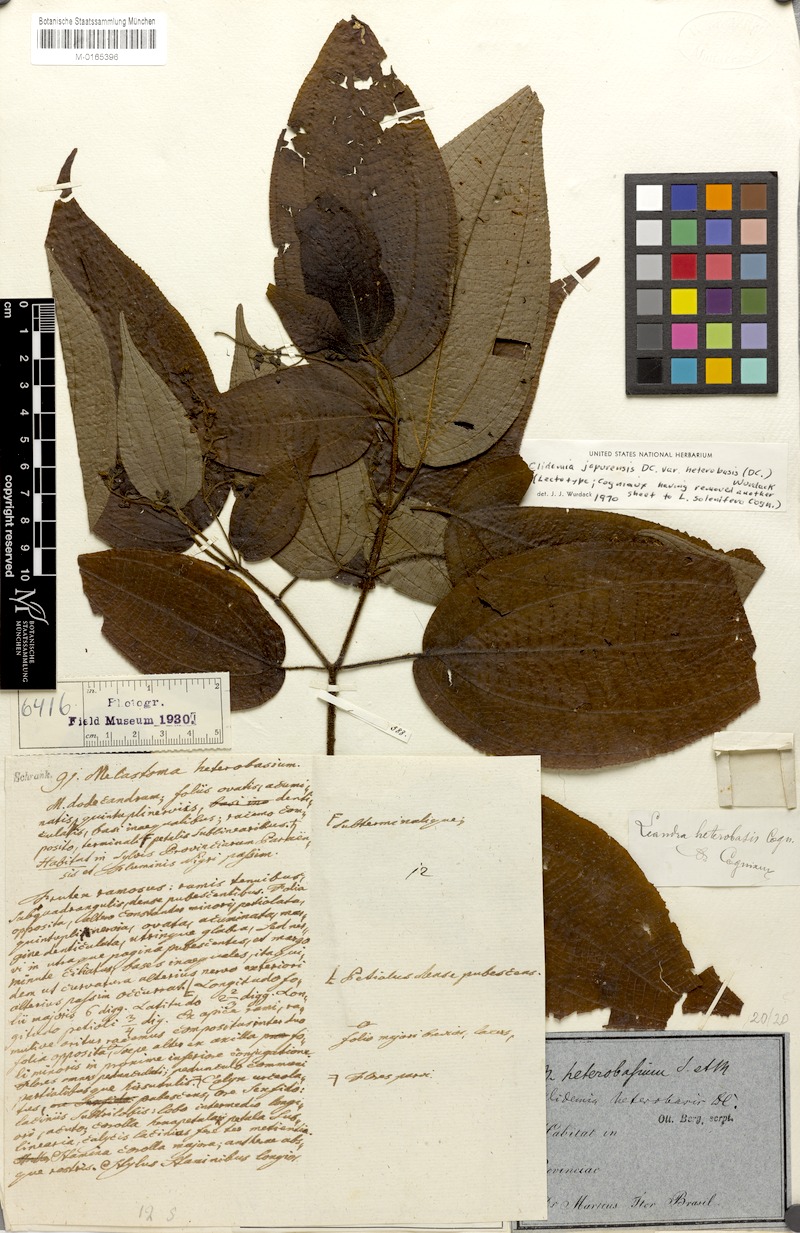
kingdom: Plantae
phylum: Tracheophyta
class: Magnoliopsida
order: Myrtales
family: Melastomataceae
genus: Miconia
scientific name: Miconia heteroclita
